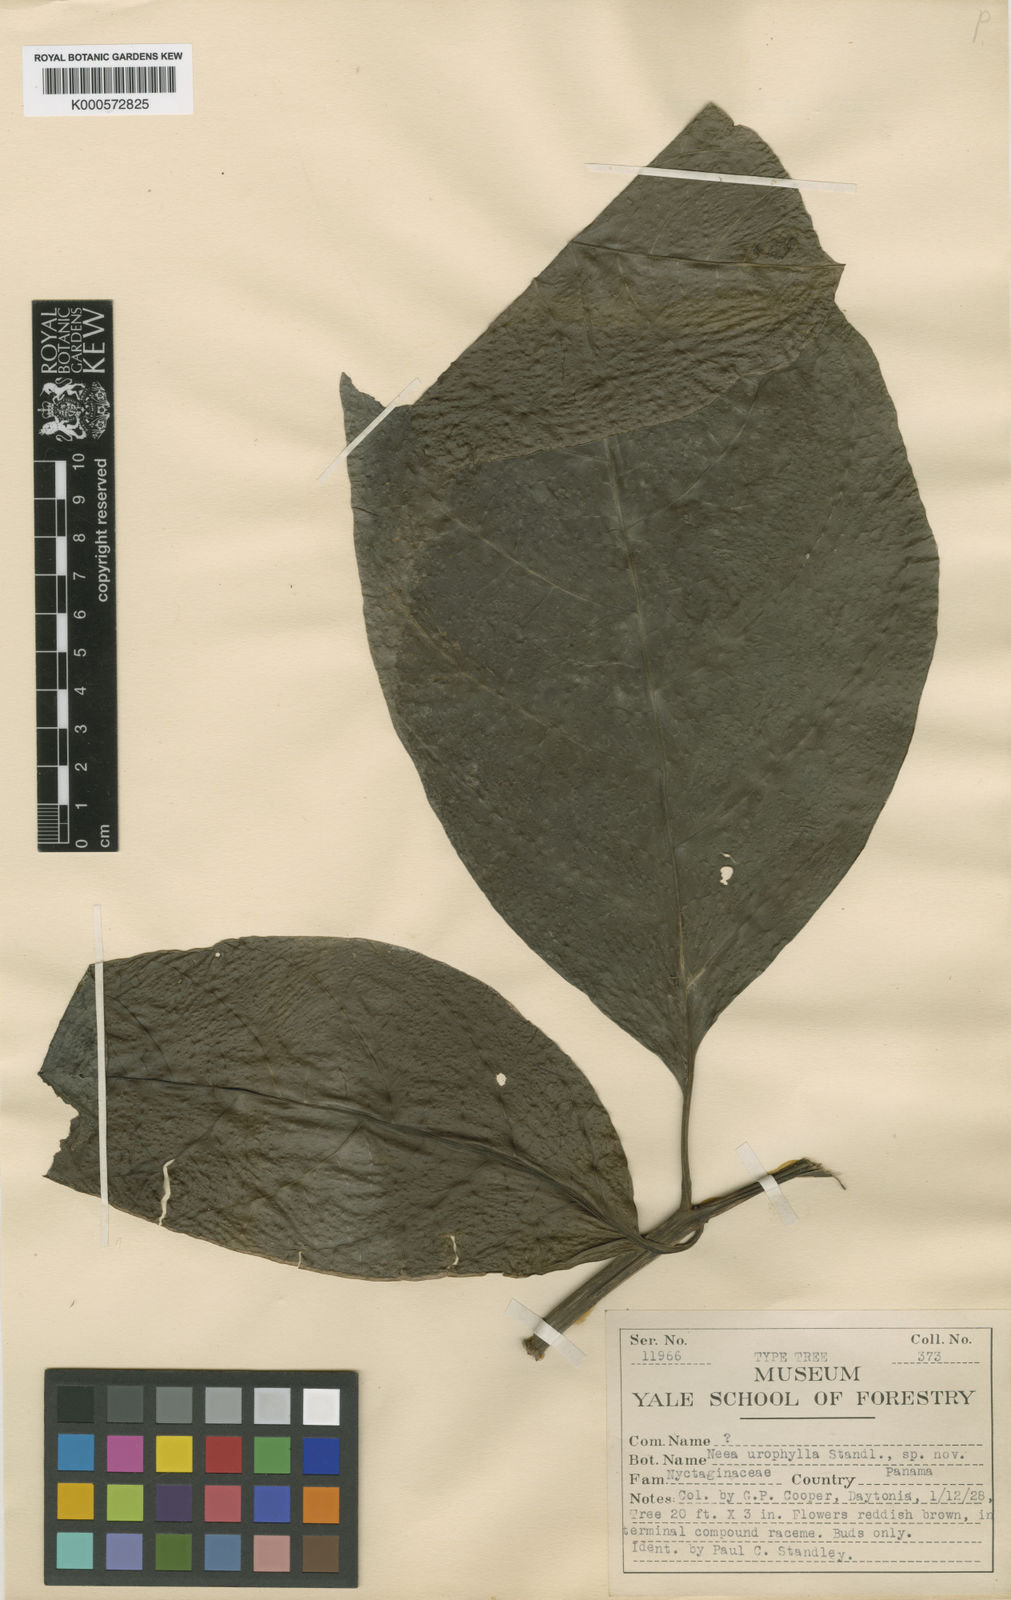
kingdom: Plantae
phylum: Tracheophyta
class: Magnoliopsida
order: Caryophyllales
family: Nyctaginaceae
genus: Neea
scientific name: Neea amplifolia
